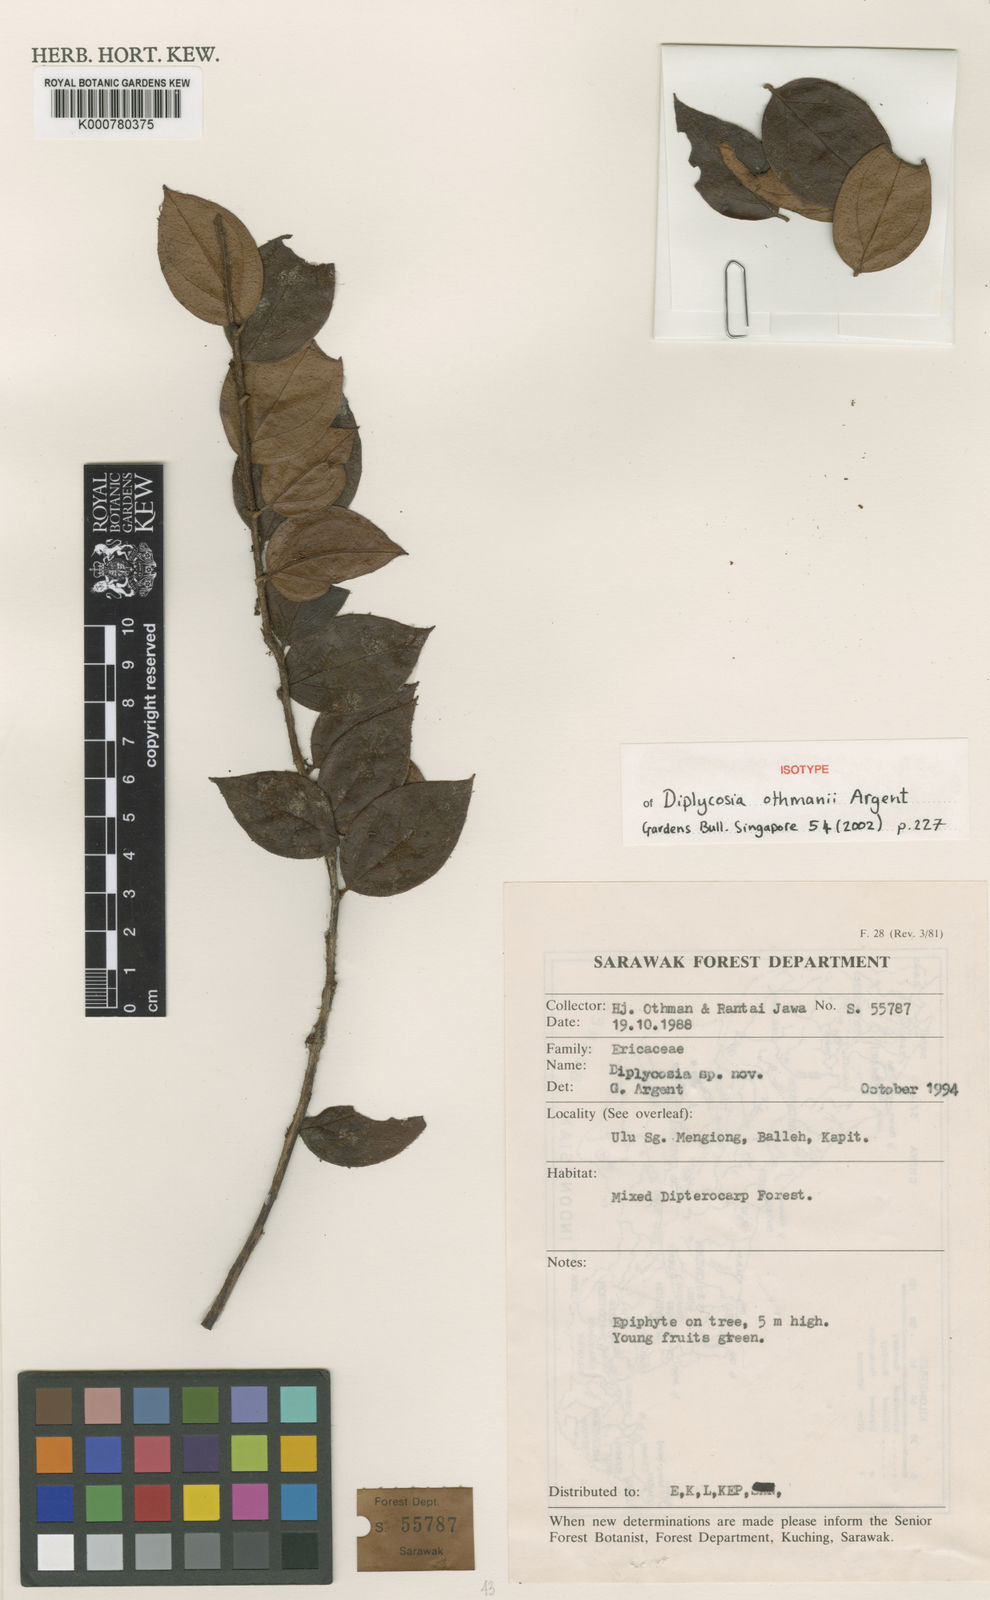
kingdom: Plantae
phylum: Tracheophyta
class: Magnoliopsida
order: Ericales
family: Ericaceae
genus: Gaultheria
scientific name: Gaultheria othmanii
